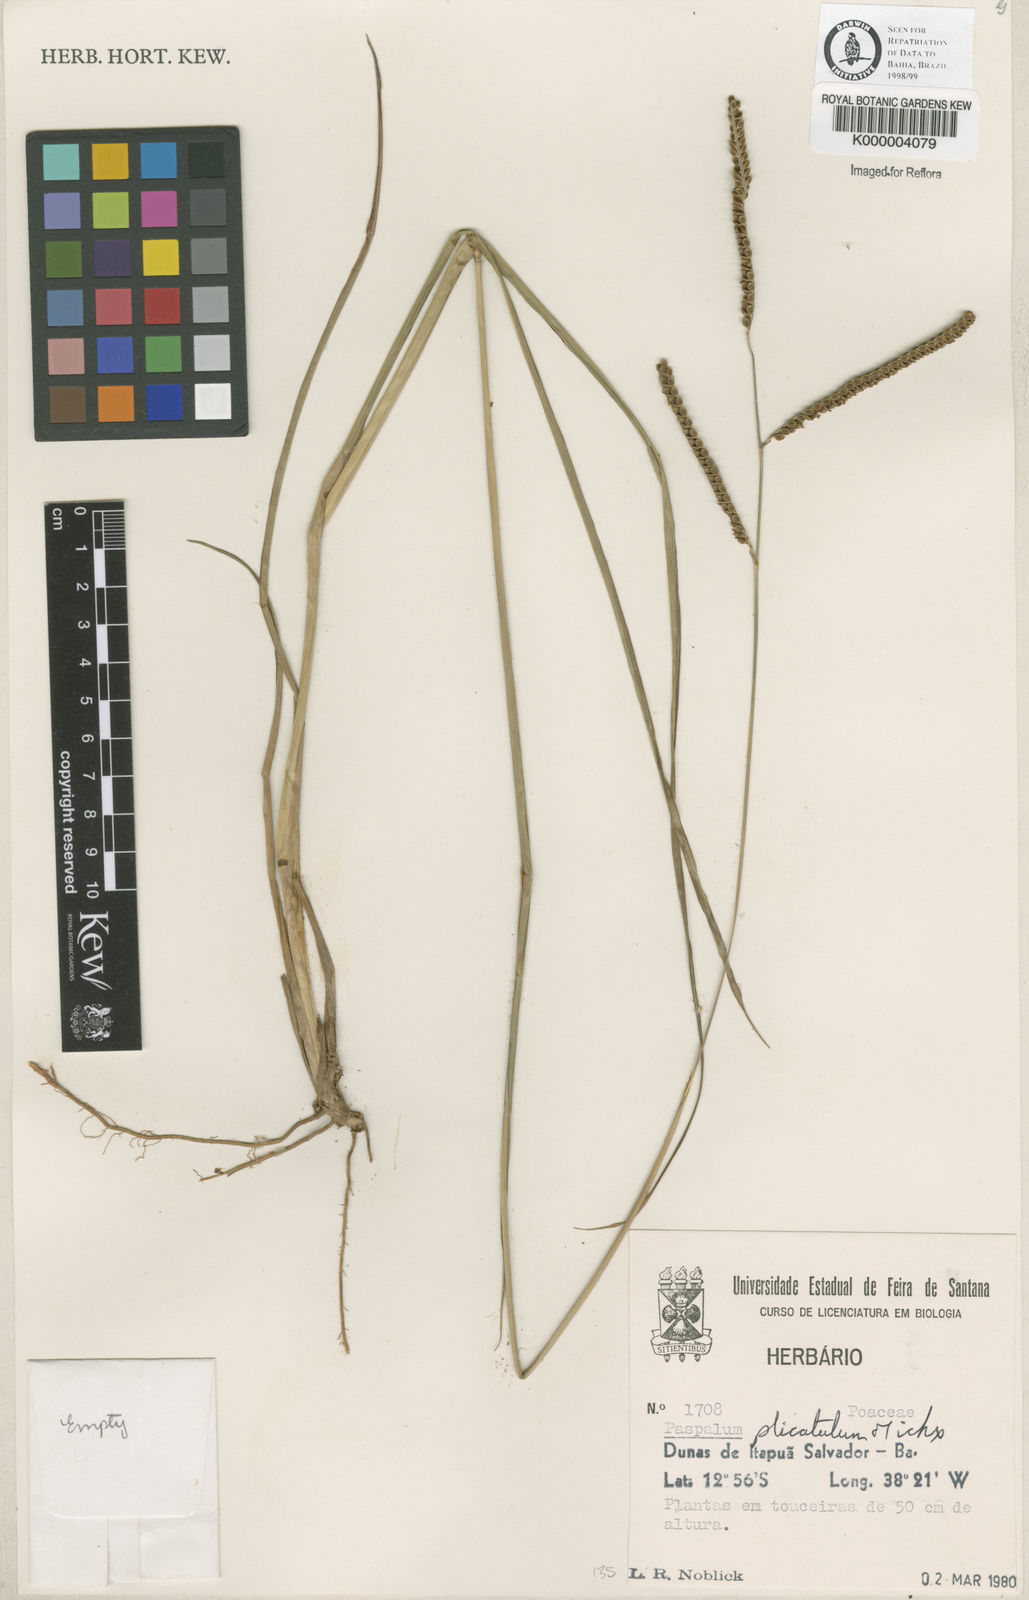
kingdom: Plantae
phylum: Tracheophyta
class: Liliopsida
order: Poales
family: Poaceae
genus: Paspalum
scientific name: Paspalum plicatulum
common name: Top paspalum
